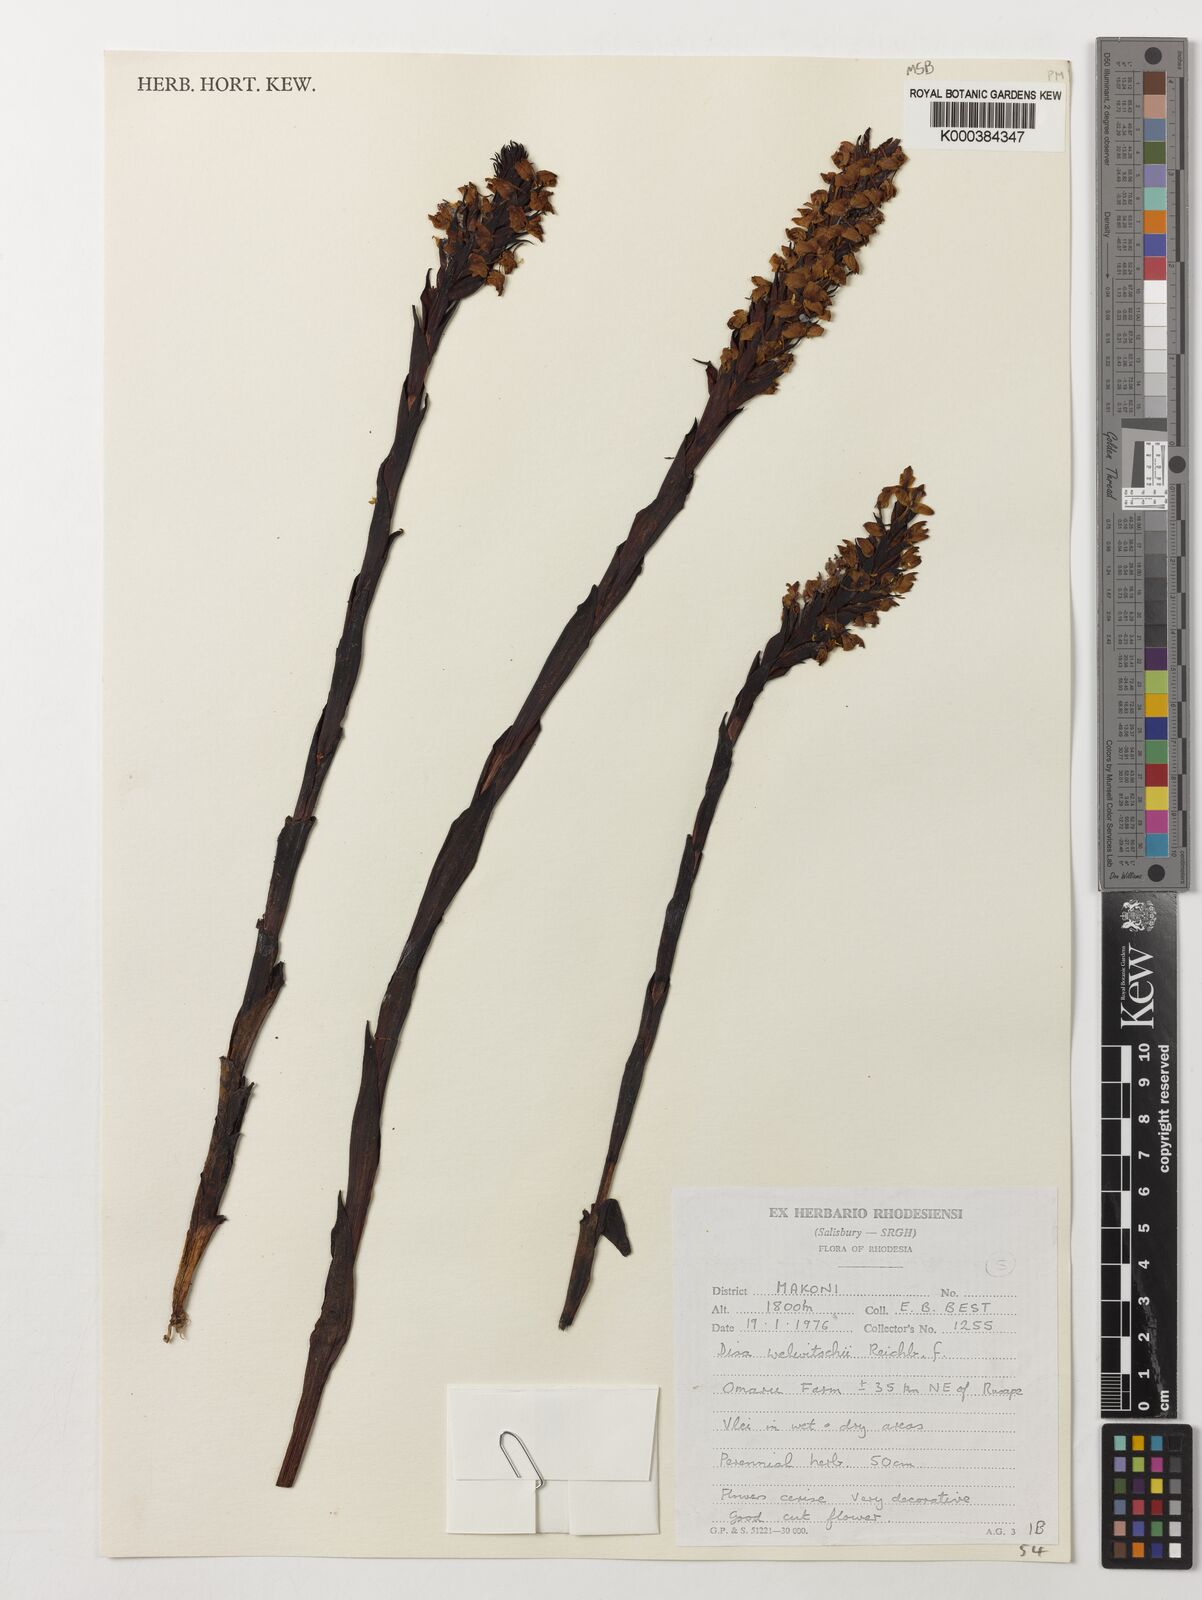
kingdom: Plantae
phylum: Tracheophyta
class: Liliopsida
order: Asparagales
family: Orchidaceae
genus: Disa
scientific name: Disa welwitschii
